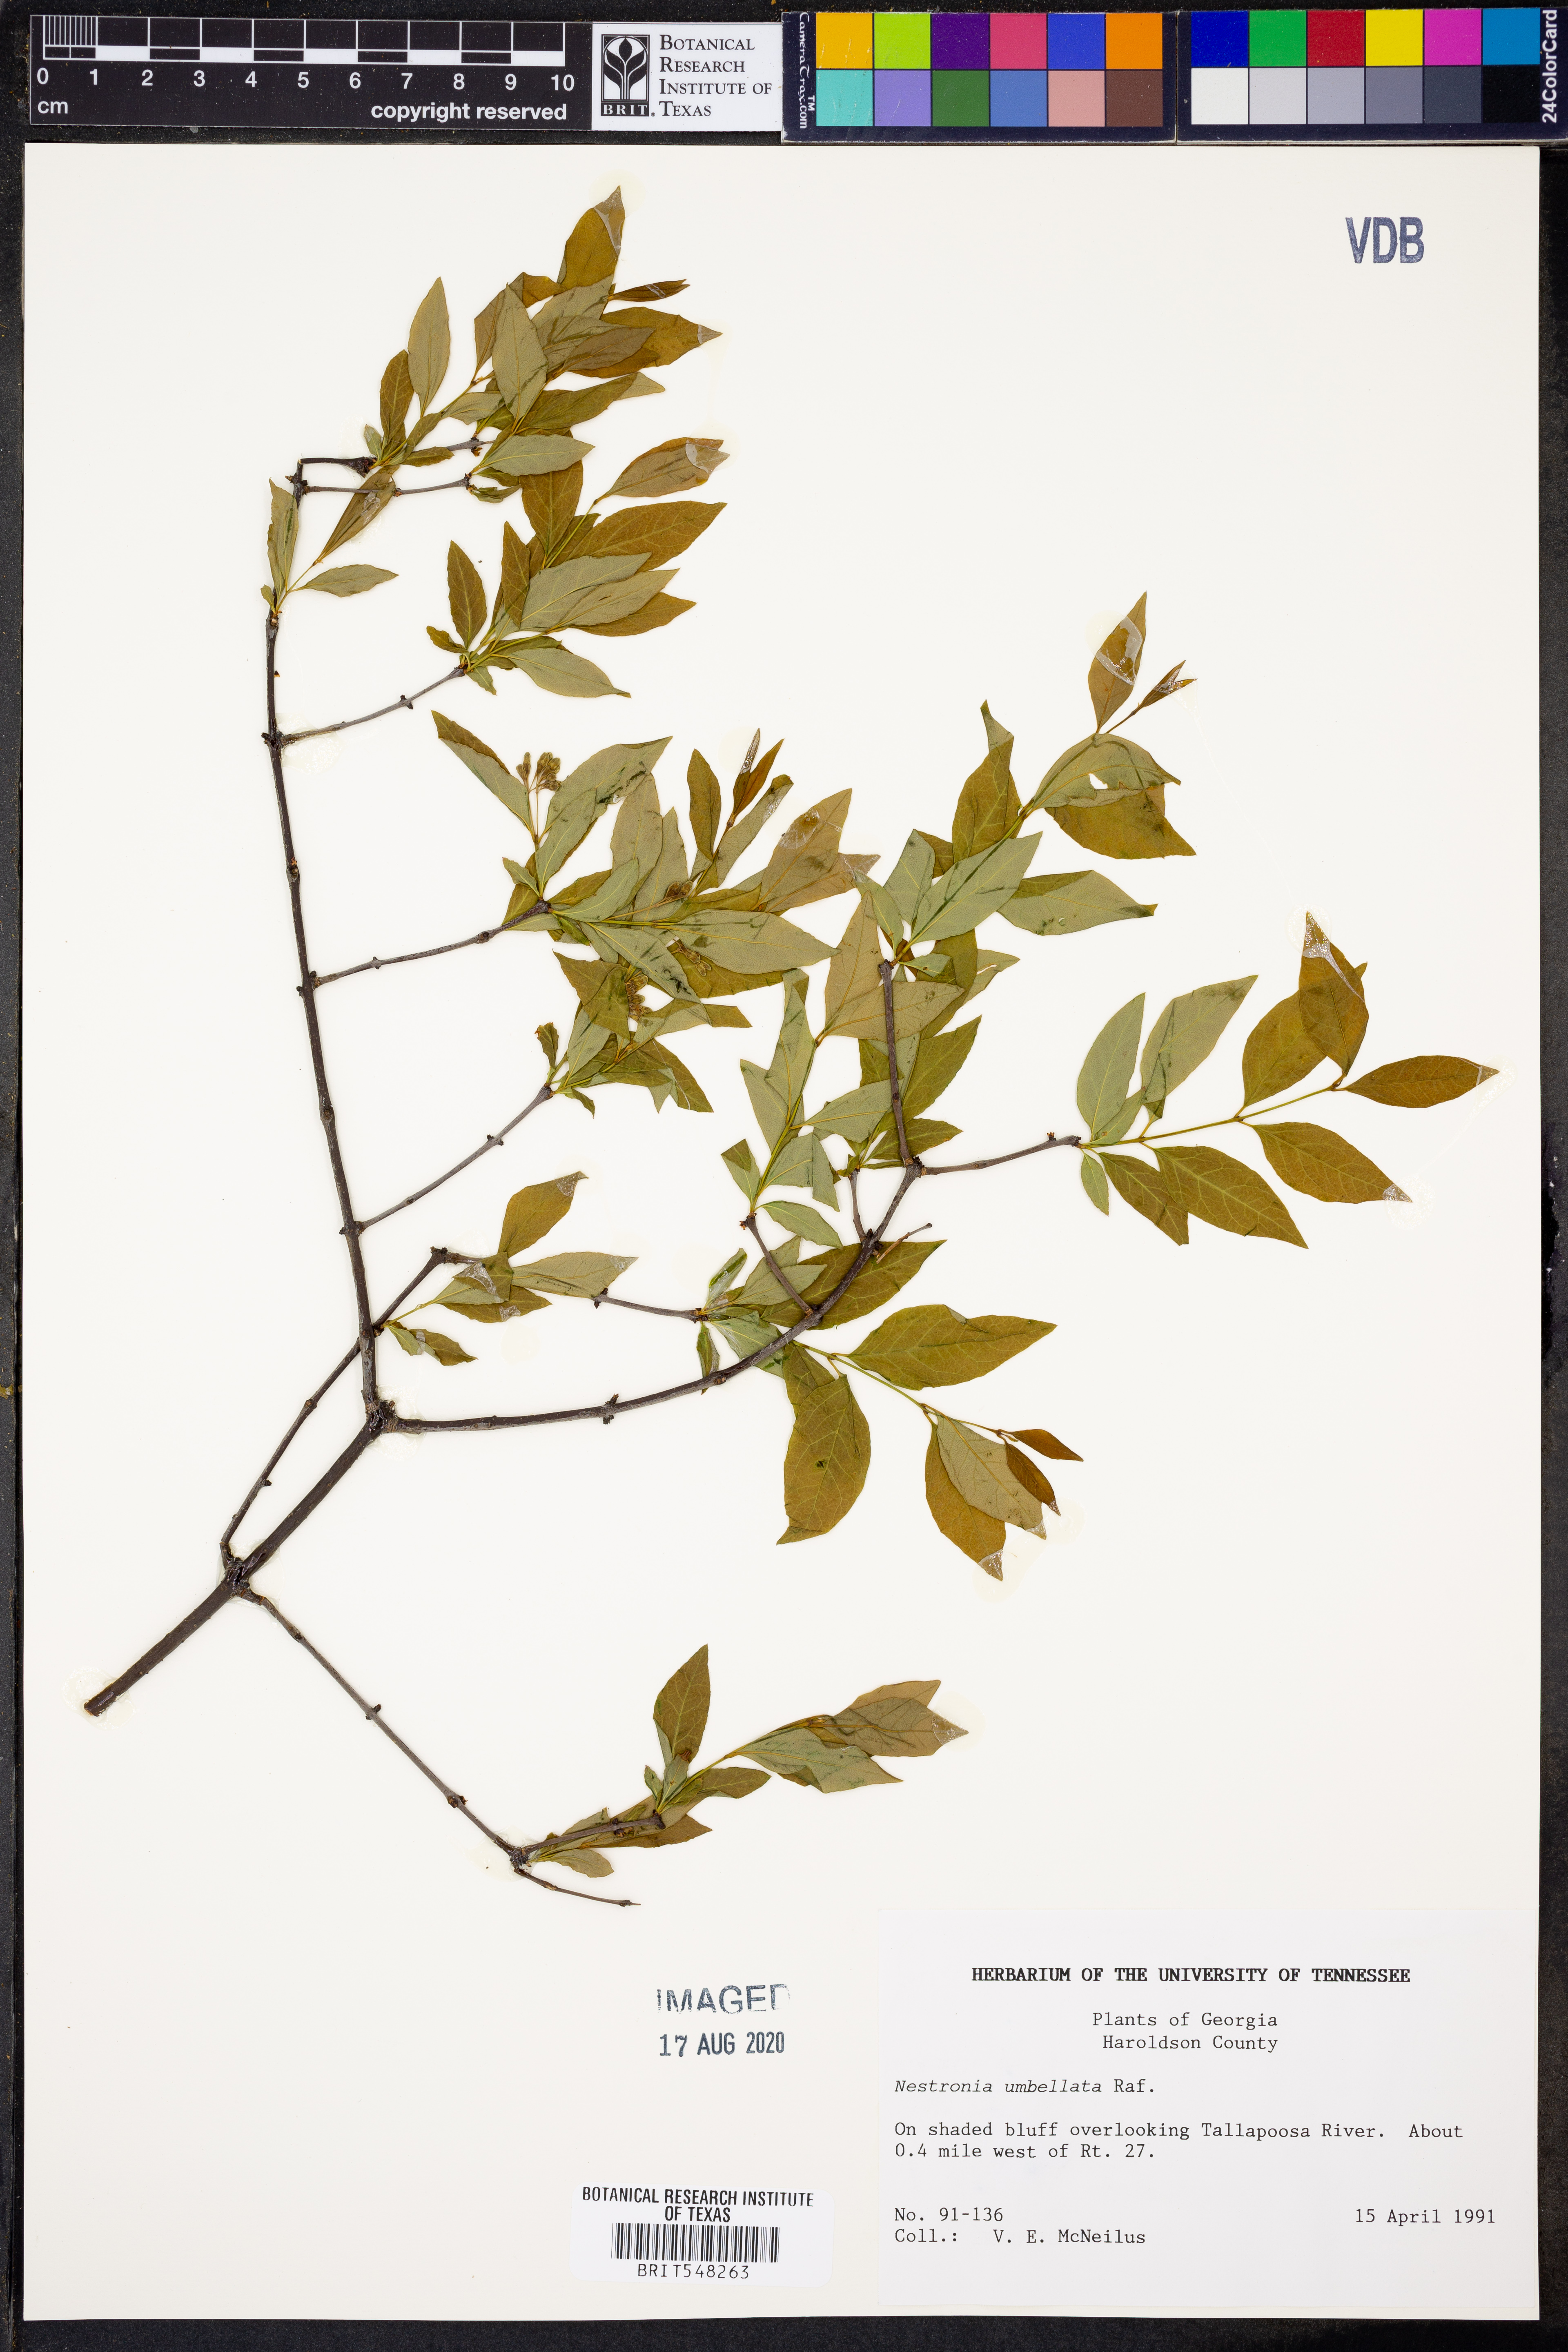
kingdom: Plantae
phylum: Tracheophyta
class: Magnoliopsida
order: Santalales
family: Santalaceae
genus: Nestronia
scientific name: Nestronia umbellula
